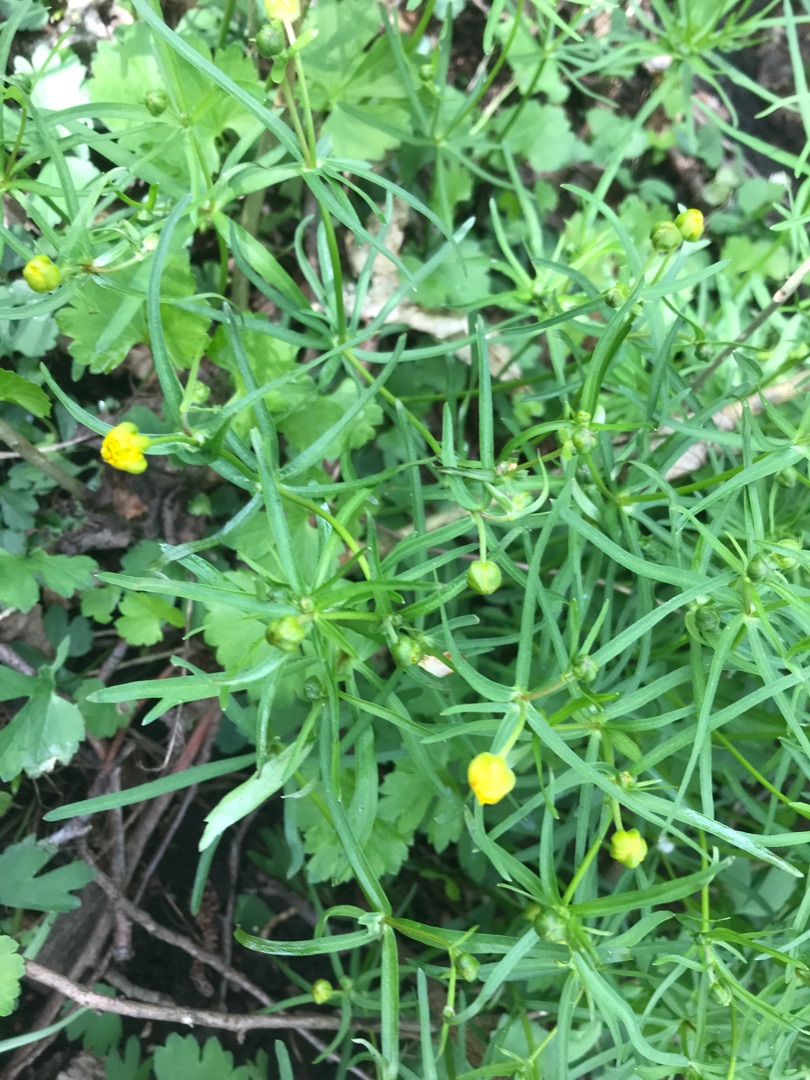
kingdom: Plantae
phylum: Tracheophyta
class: Magnoliopsida
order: Ranunculales
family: Ranunculaceae
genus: Ranunculus
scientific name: Ranunculus auricomus
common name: Nyrebladet ranunkel
